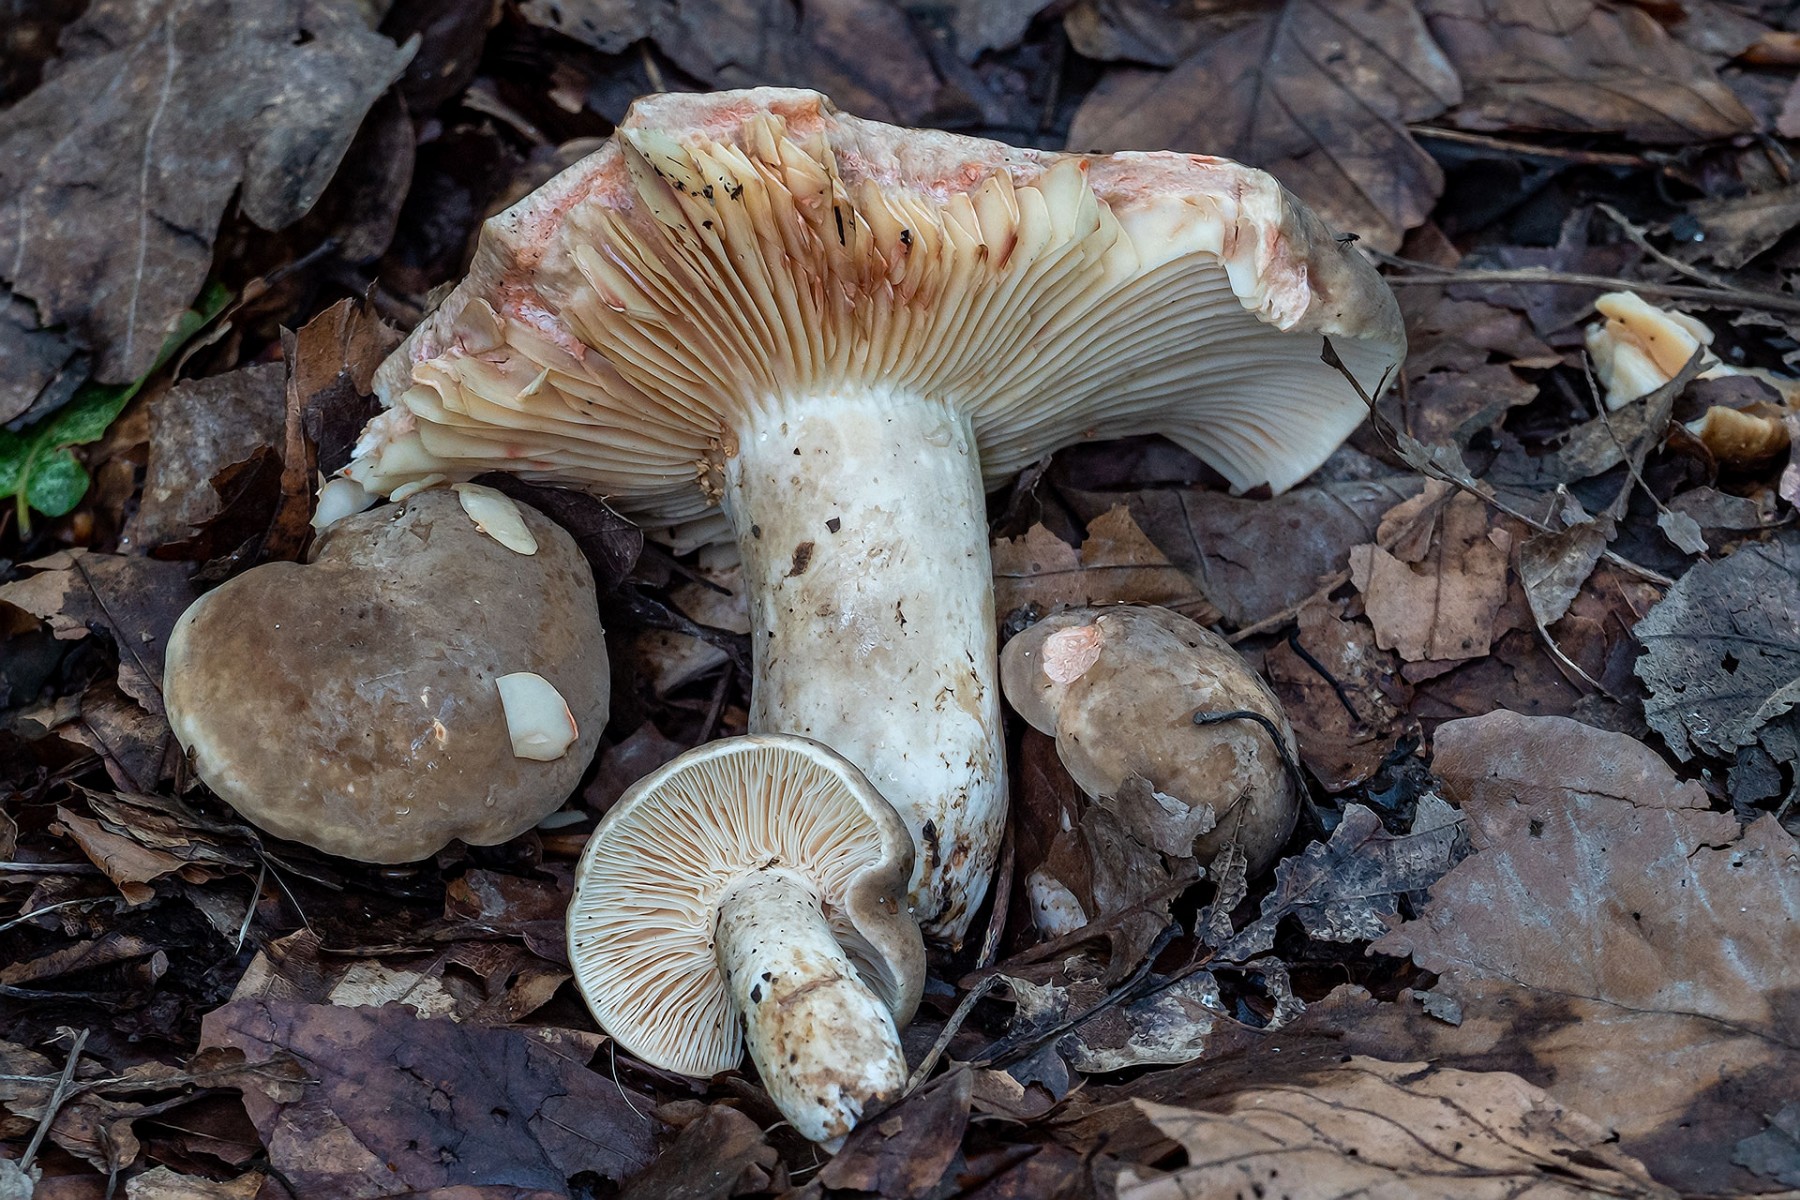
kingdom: Fungi
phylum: Basidiomycota
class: Agaricomycetes
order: Russulales
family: Russulaceae
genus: Lactarius
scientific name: Lactarius azonites
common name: røggrå mælkehat
